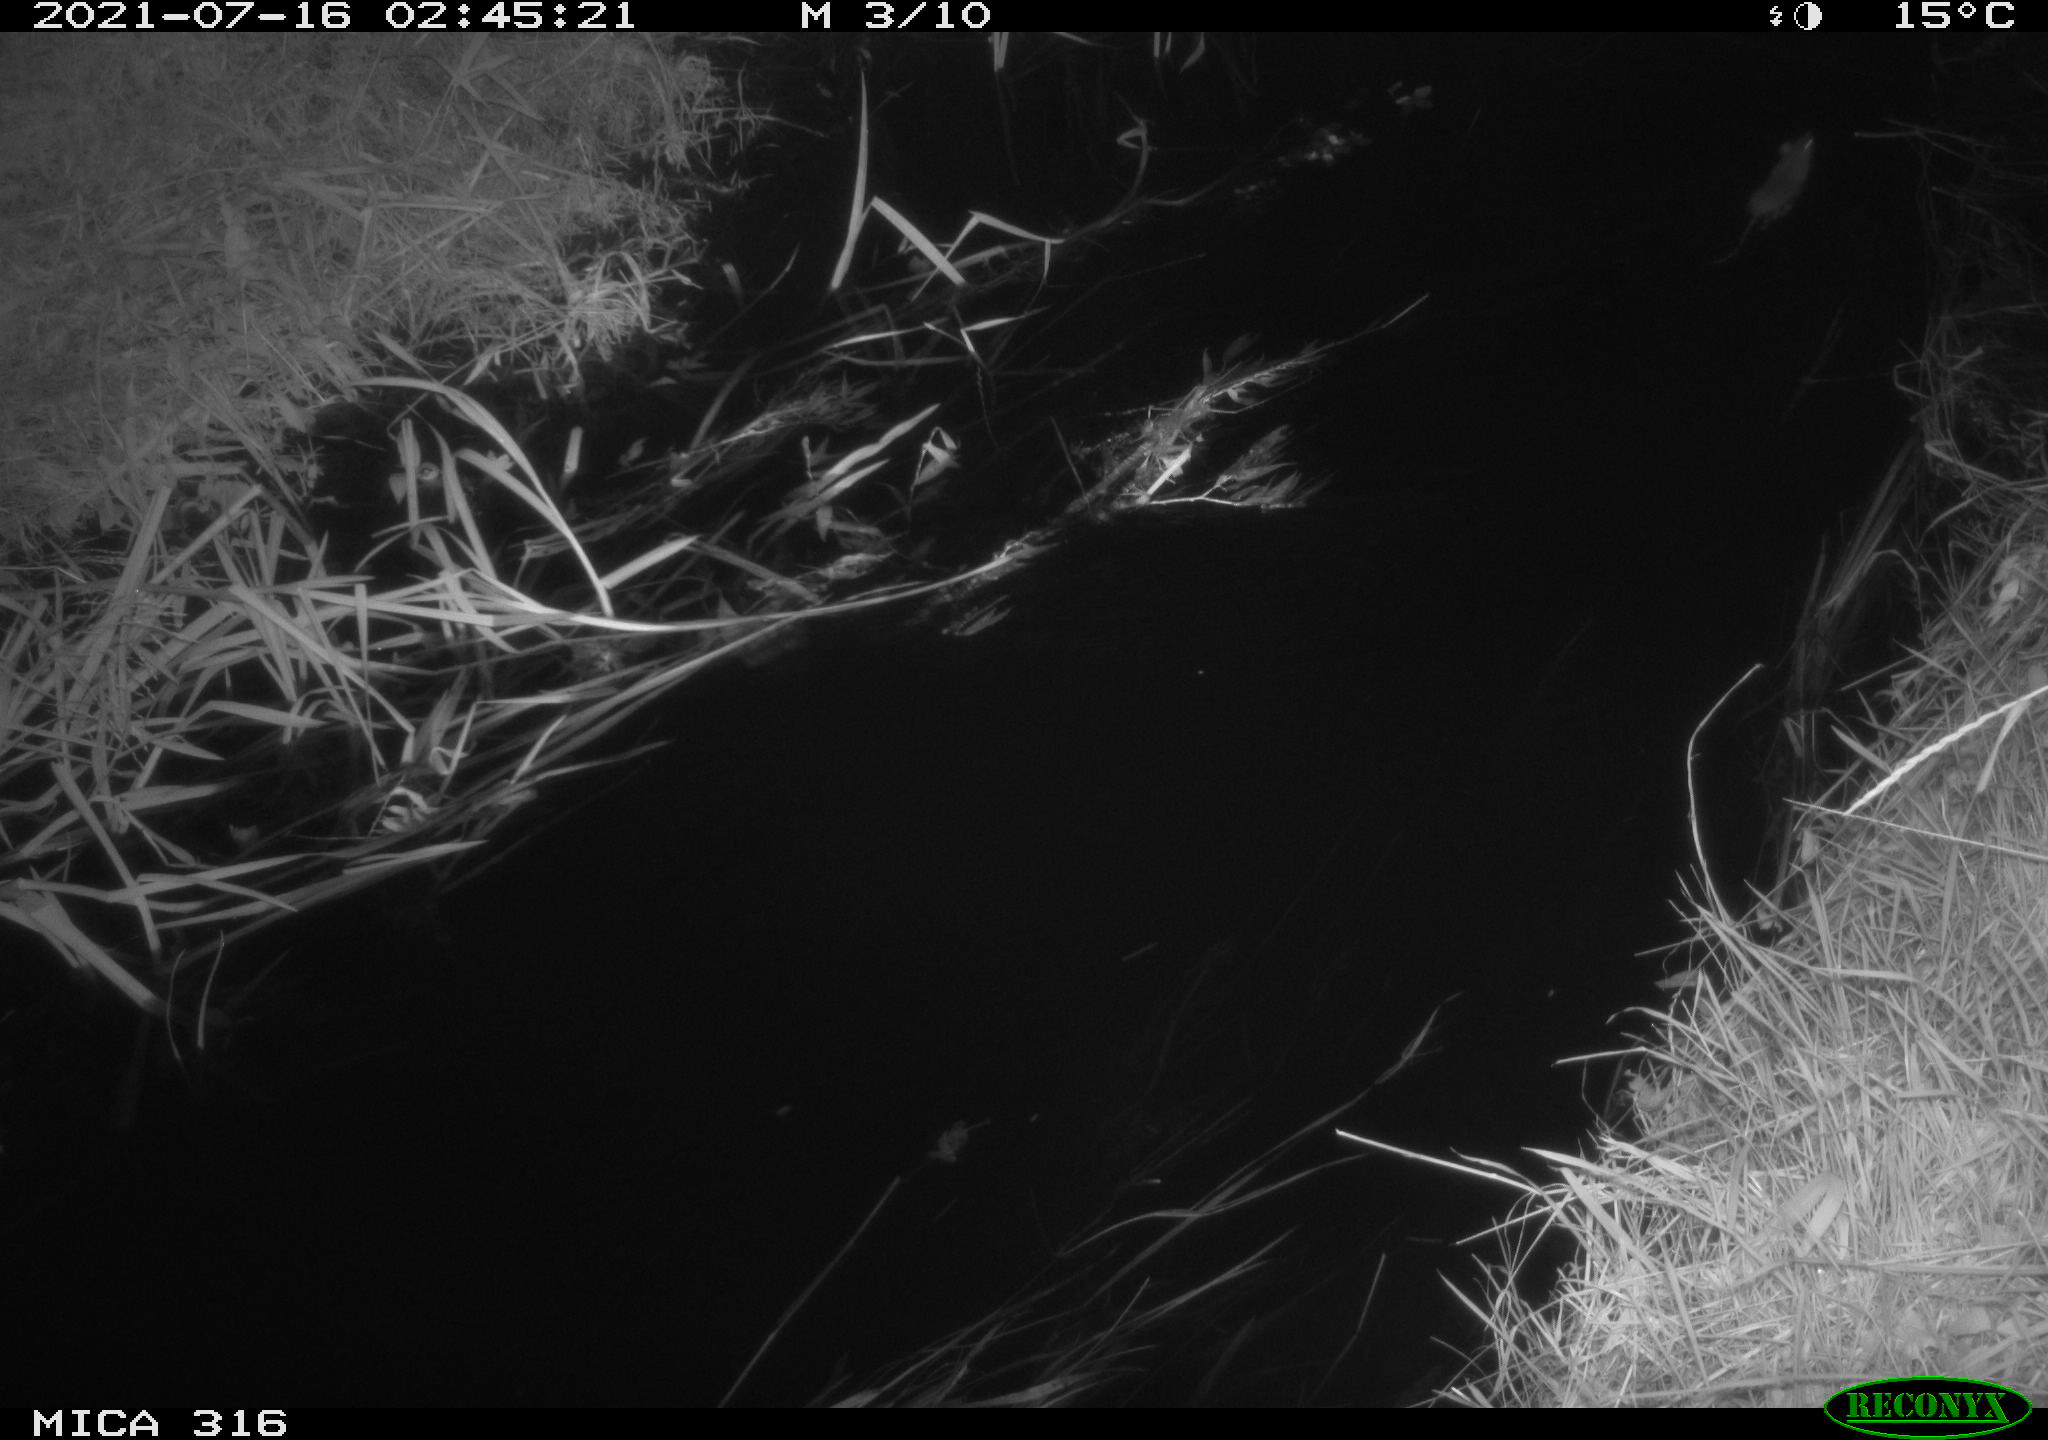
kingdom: Animalia
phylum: Chordata
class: Mammalia
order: Rodentia
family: Muridae
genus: Rattus
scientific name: Rattus norvegicus
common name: Brown rat
